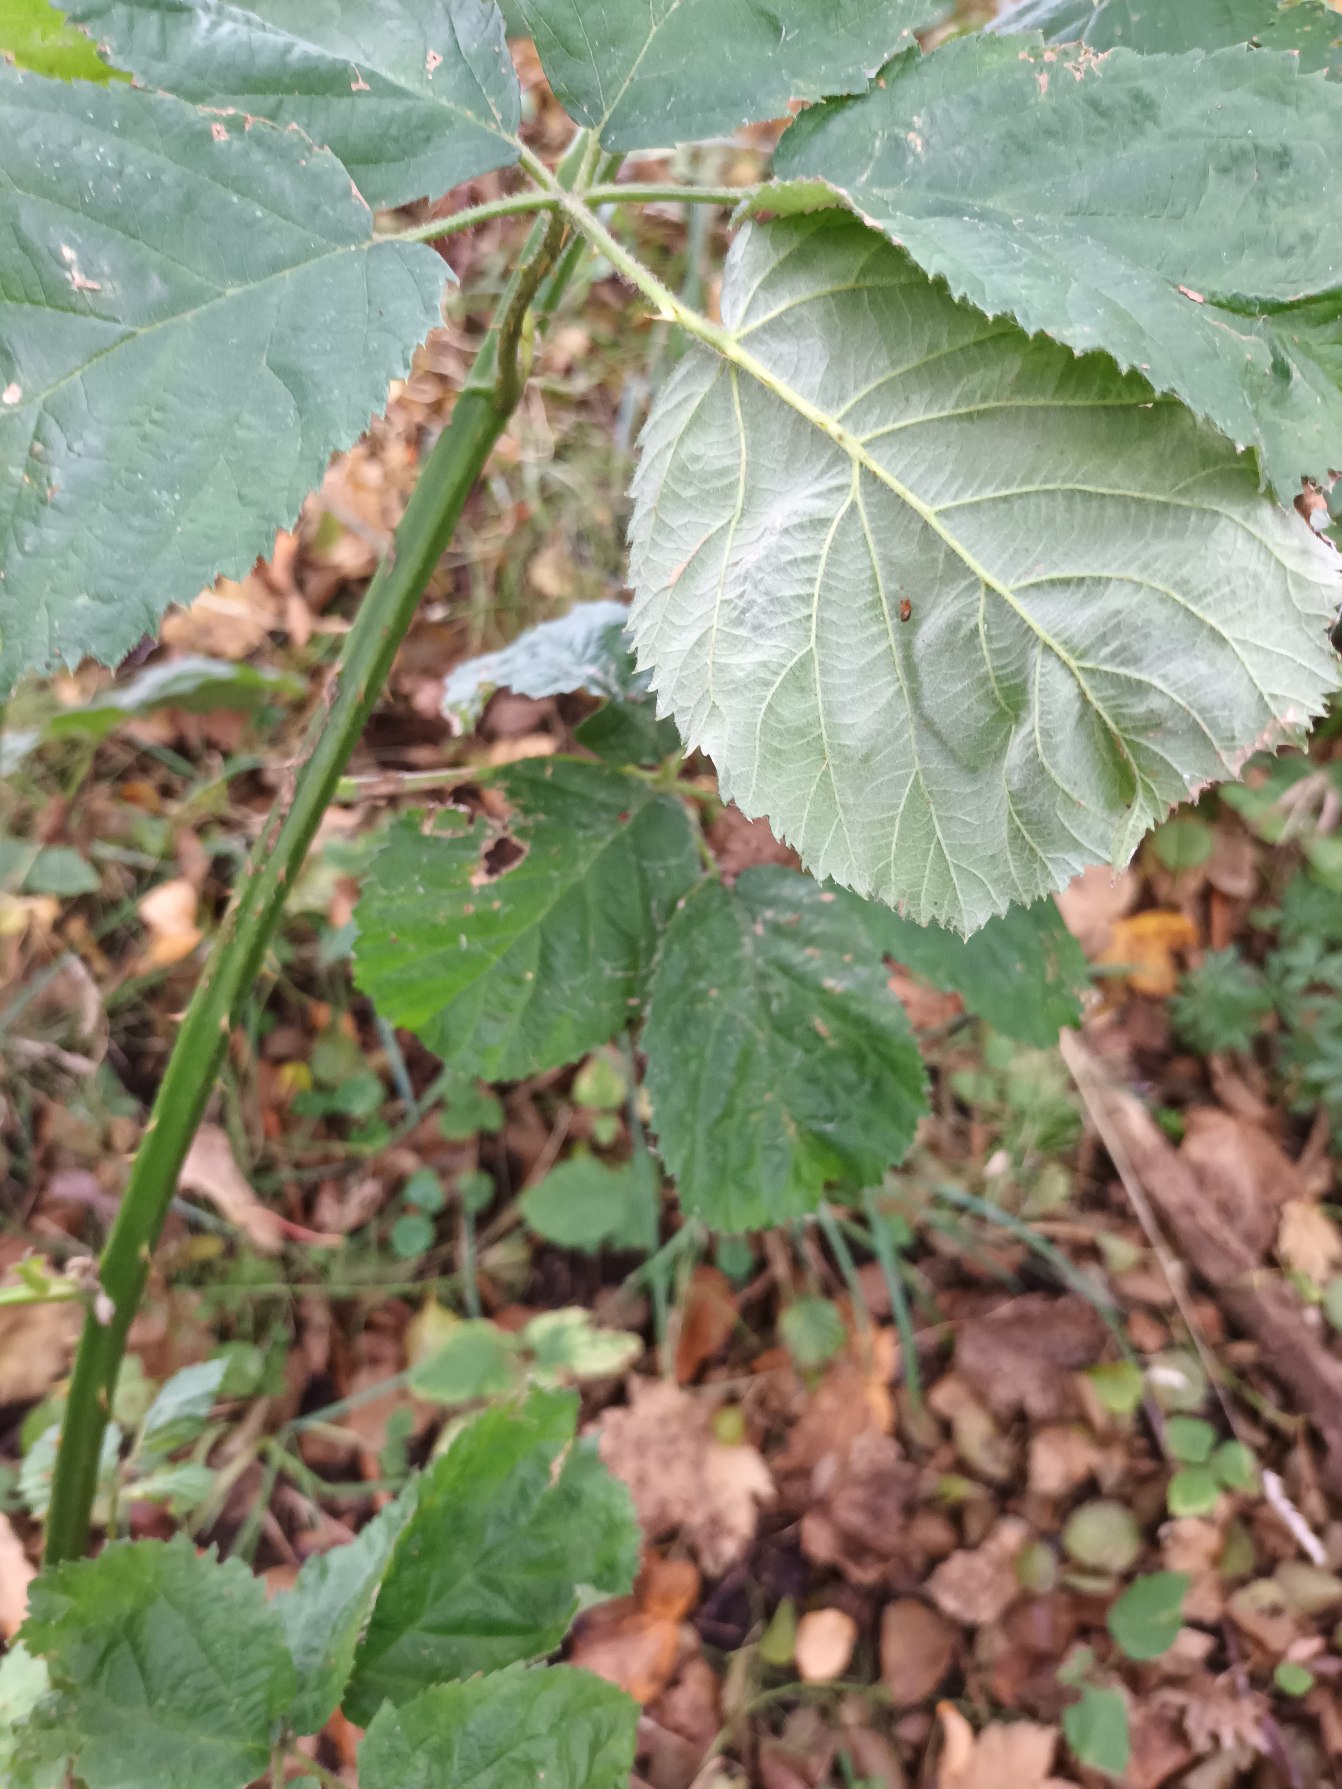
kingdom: Plantae
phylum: Tracheophyta
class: Magnoliopsida
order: Rosales
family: Rosaceae
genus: Rubus
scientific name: Rubus armeniacus
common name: Armensk brombær
